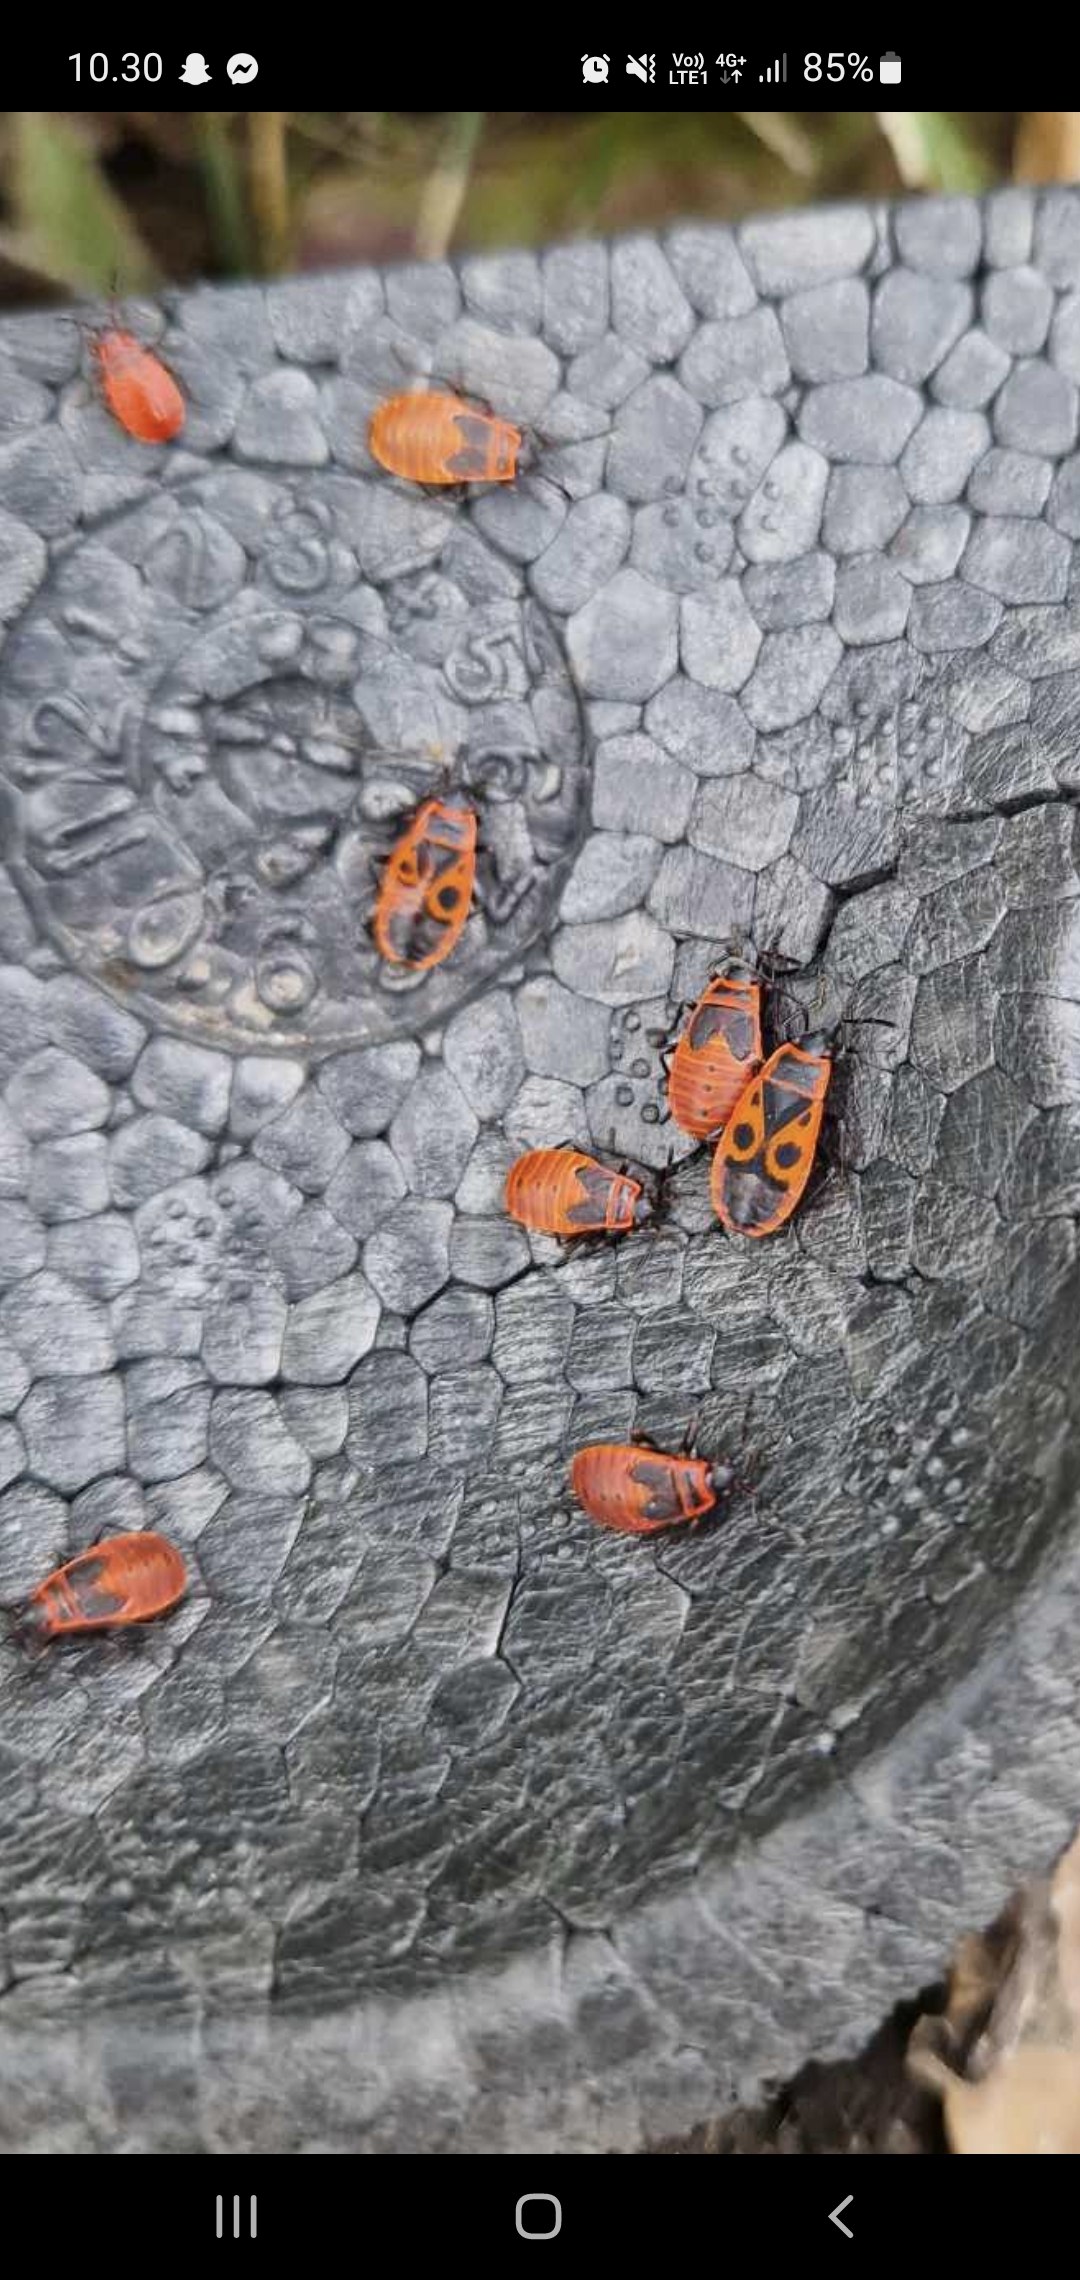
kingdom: Animalia
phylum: Arthropoda
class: Insecta
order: Hemiptera
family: Pyrrhocoridae
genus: Pyrrhocoris
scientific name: Pyrrhocoris apterus
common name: Ildtæge
